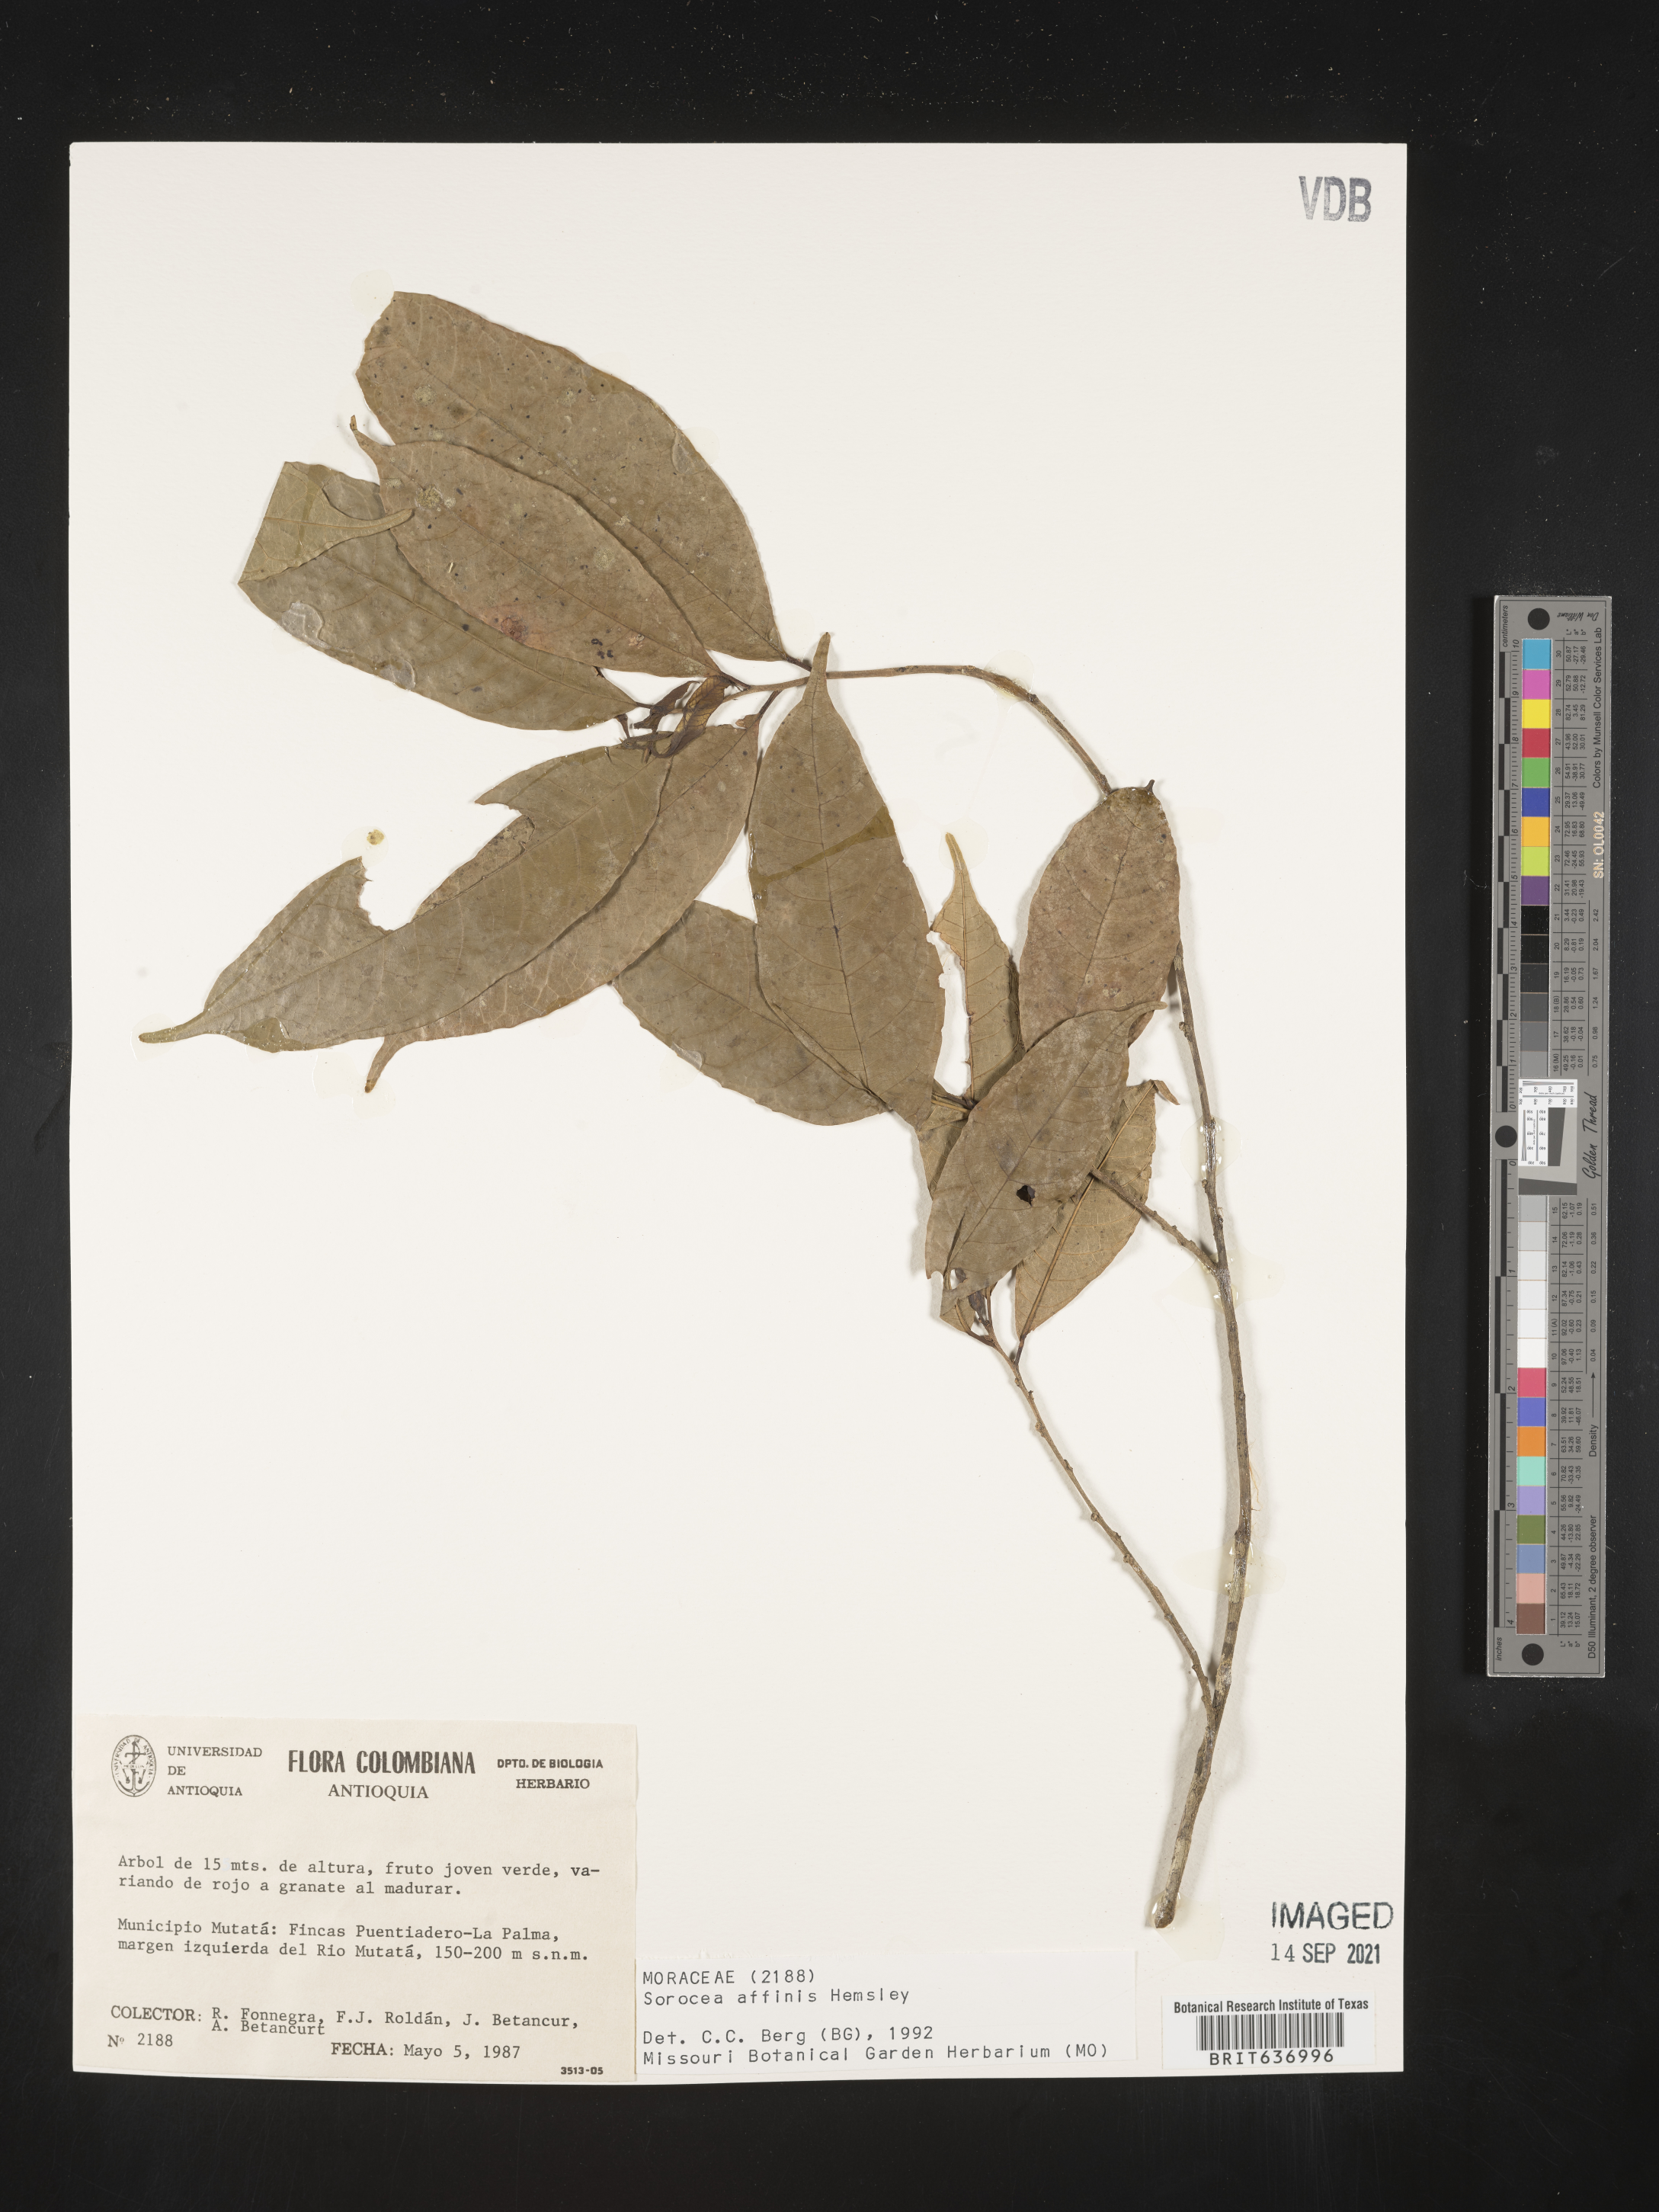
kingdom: Plantae
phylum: Tracheophyta
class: Magnoliopsida
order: Rosales
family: Moraceae
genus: Sorocea
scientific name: Sorocea
